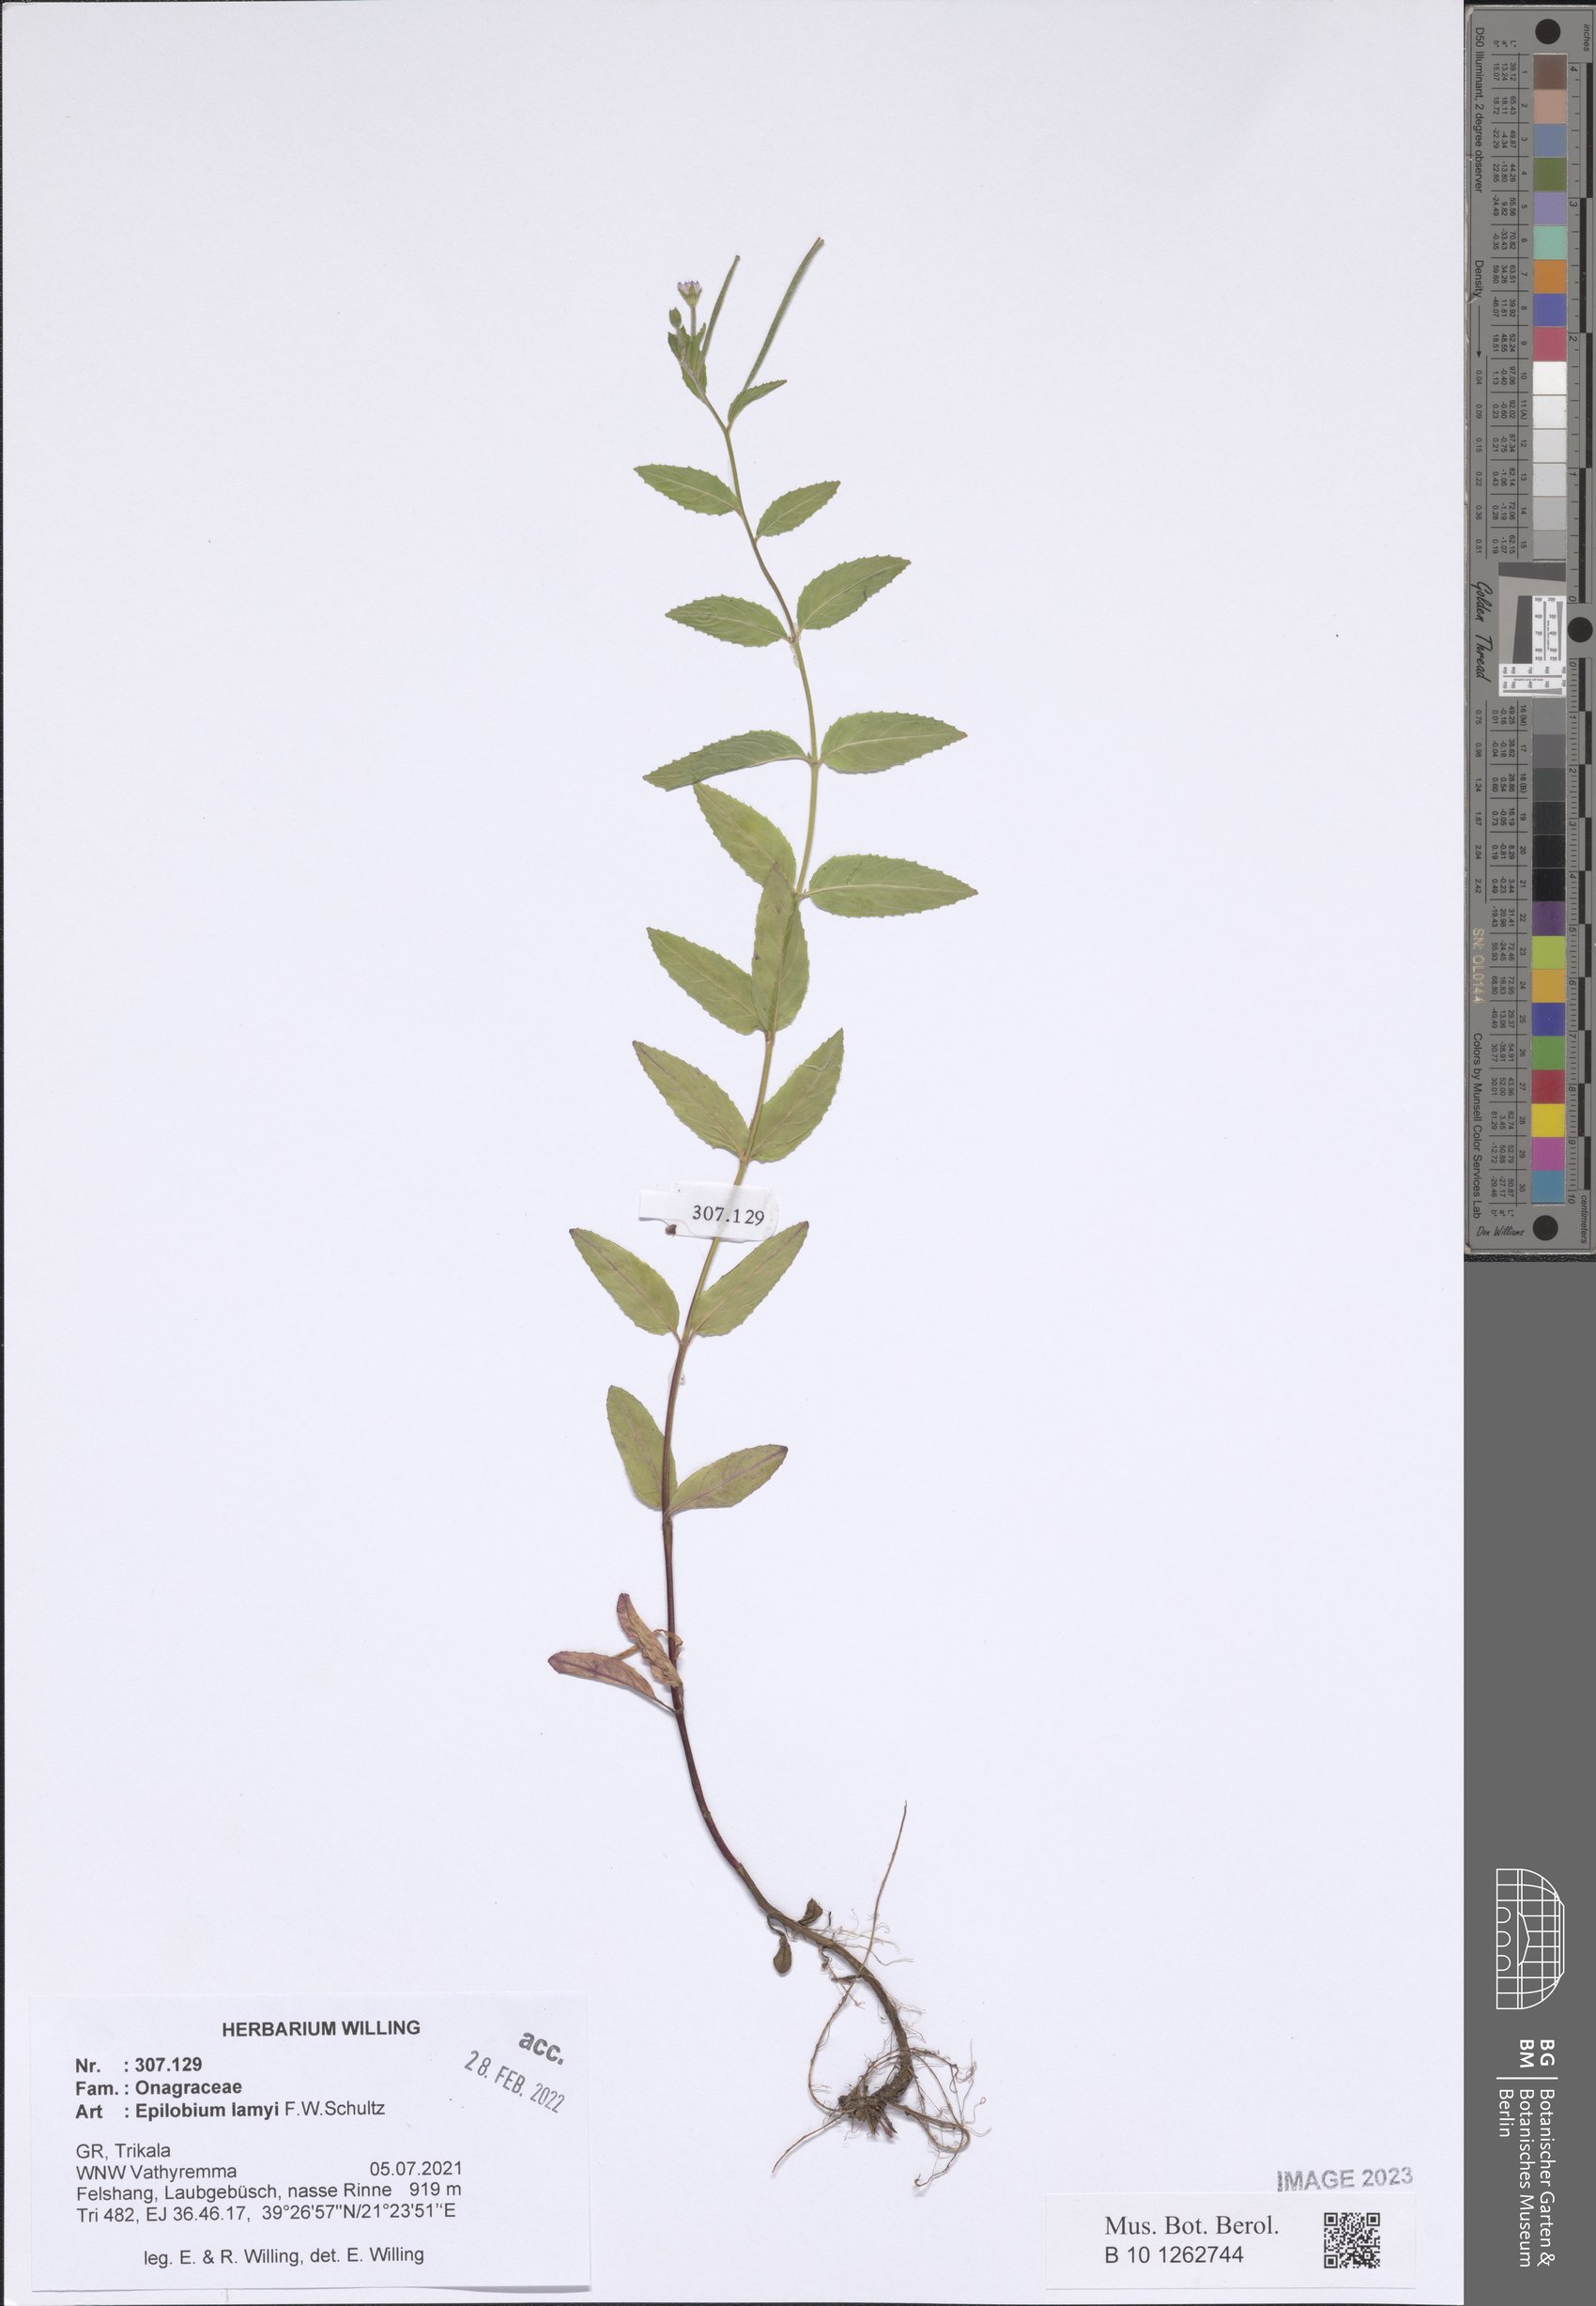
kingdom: Plantae
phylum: Tracheophyta
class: Magnoliopsida
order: Myrtales
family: Onagraceae
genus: Epilobium
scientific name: Epilobium lamyi
